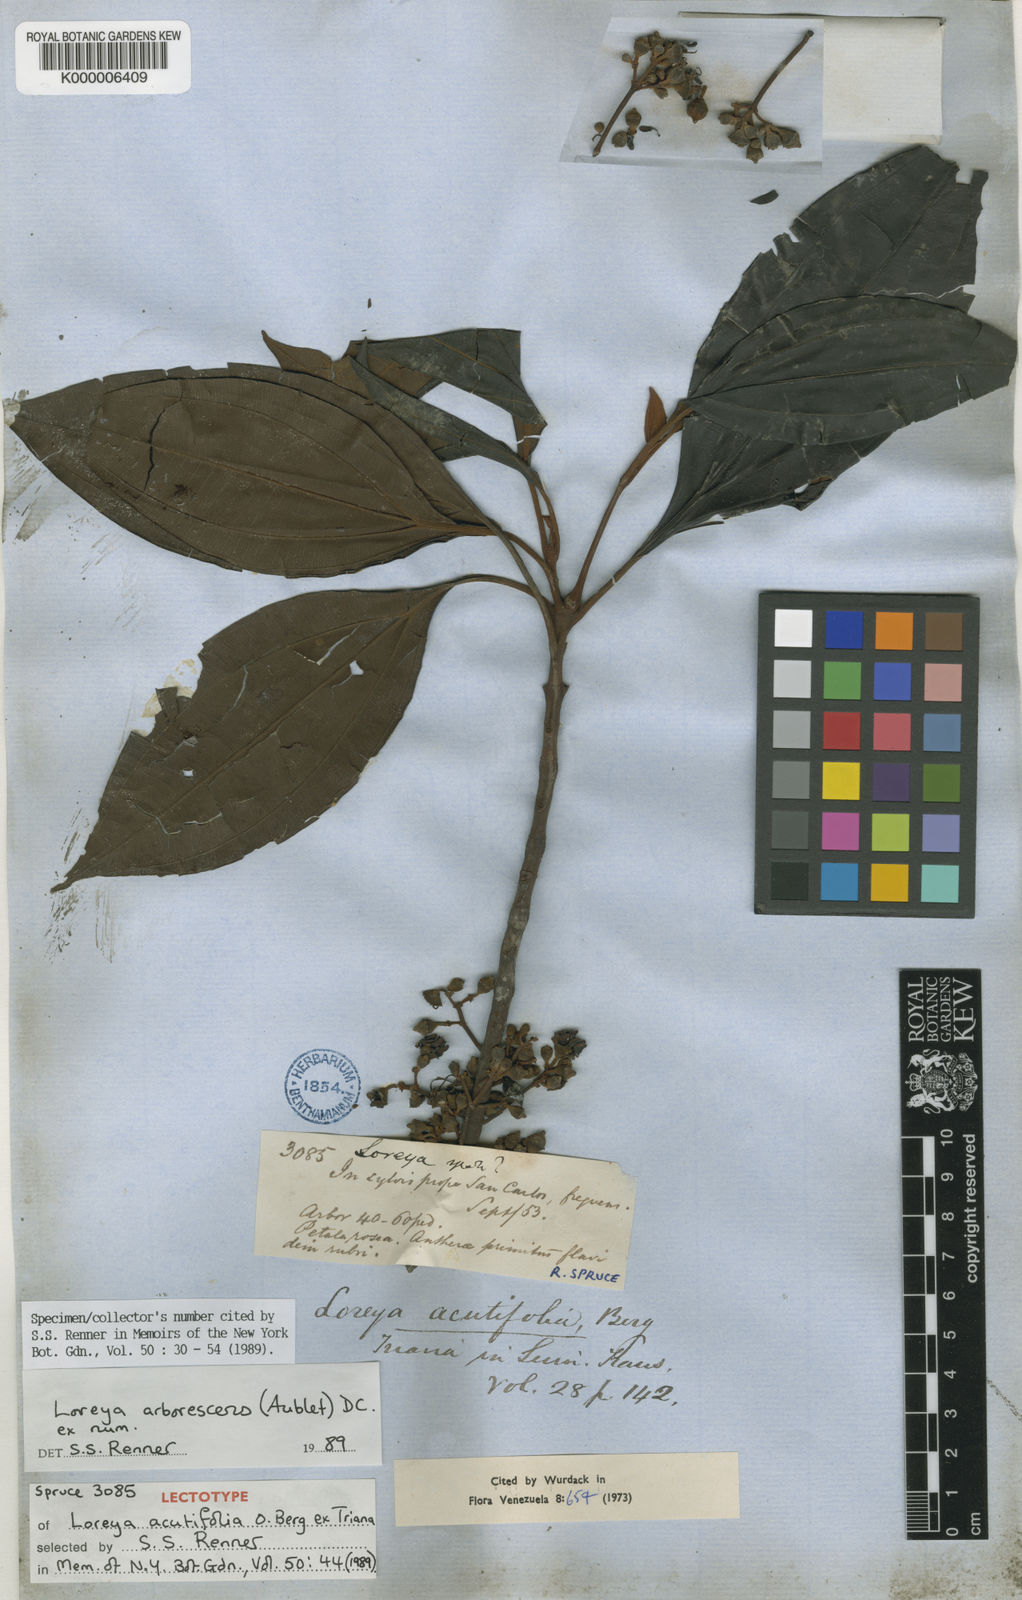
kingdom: Plantae
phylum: Tracheophyta
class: Magnoliopsida
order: Myrtales
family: Melastomataceae
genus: Bellucia
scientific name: Bellucia arborescens
